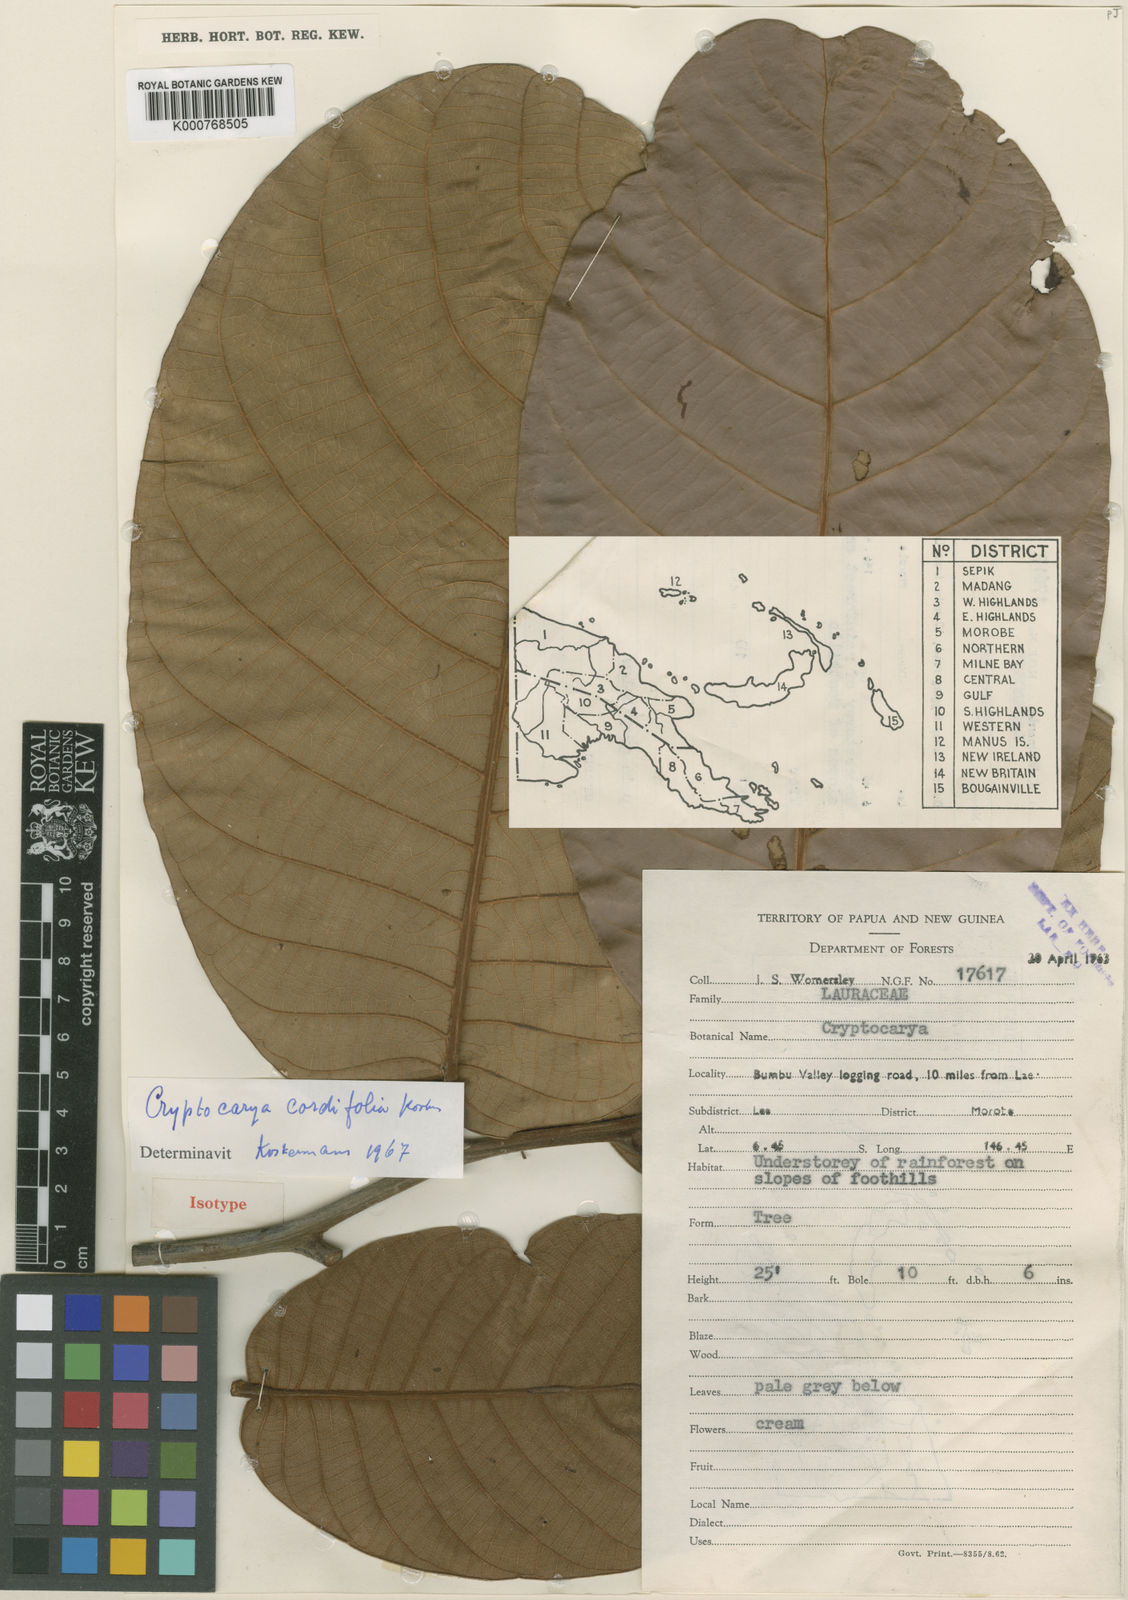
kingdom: Plantae
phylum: Tracheophyta
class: Magnoliopsida
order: Laurales
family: Lauraceae
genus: Cryptocarya
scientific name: Cryptocarya cordifolia
